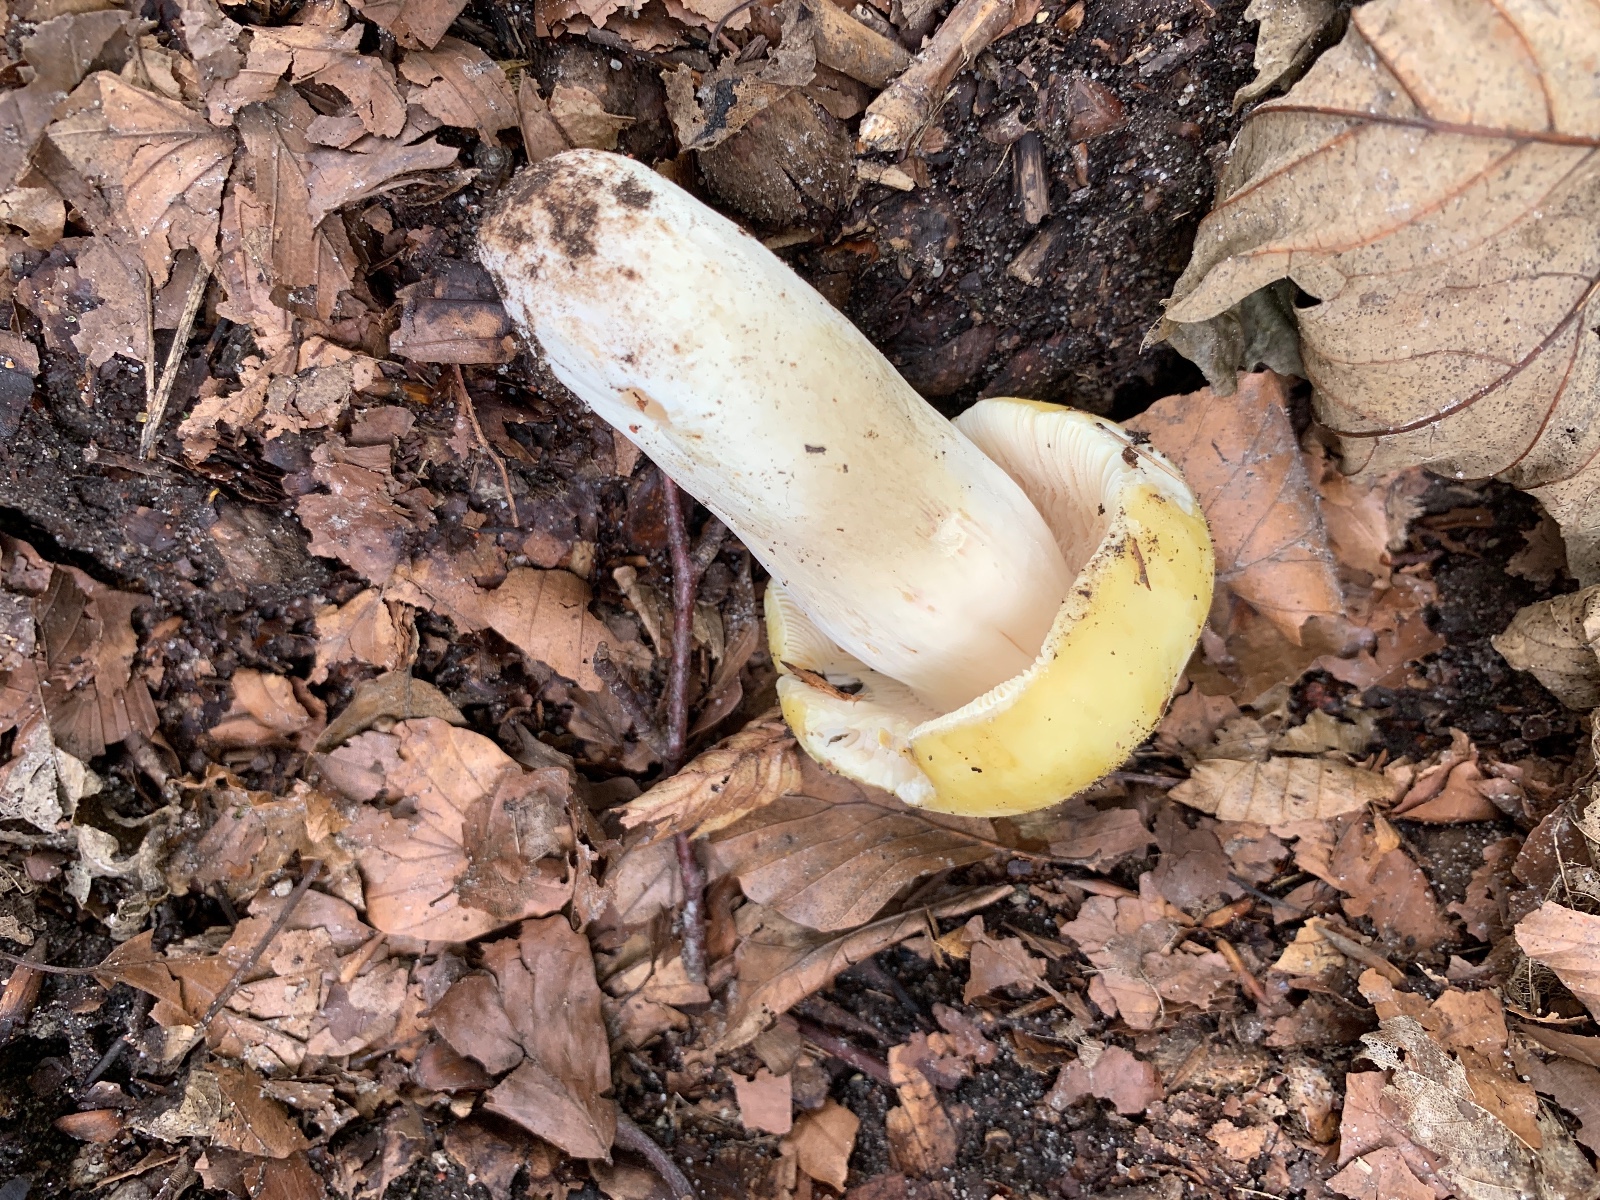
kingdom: Fungi
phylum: Basidiomycota
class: Agaricomycetes
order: Russulales
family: Russulaceae
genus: Russula
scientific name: Russula violeipes
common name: ferskengul skørhat
